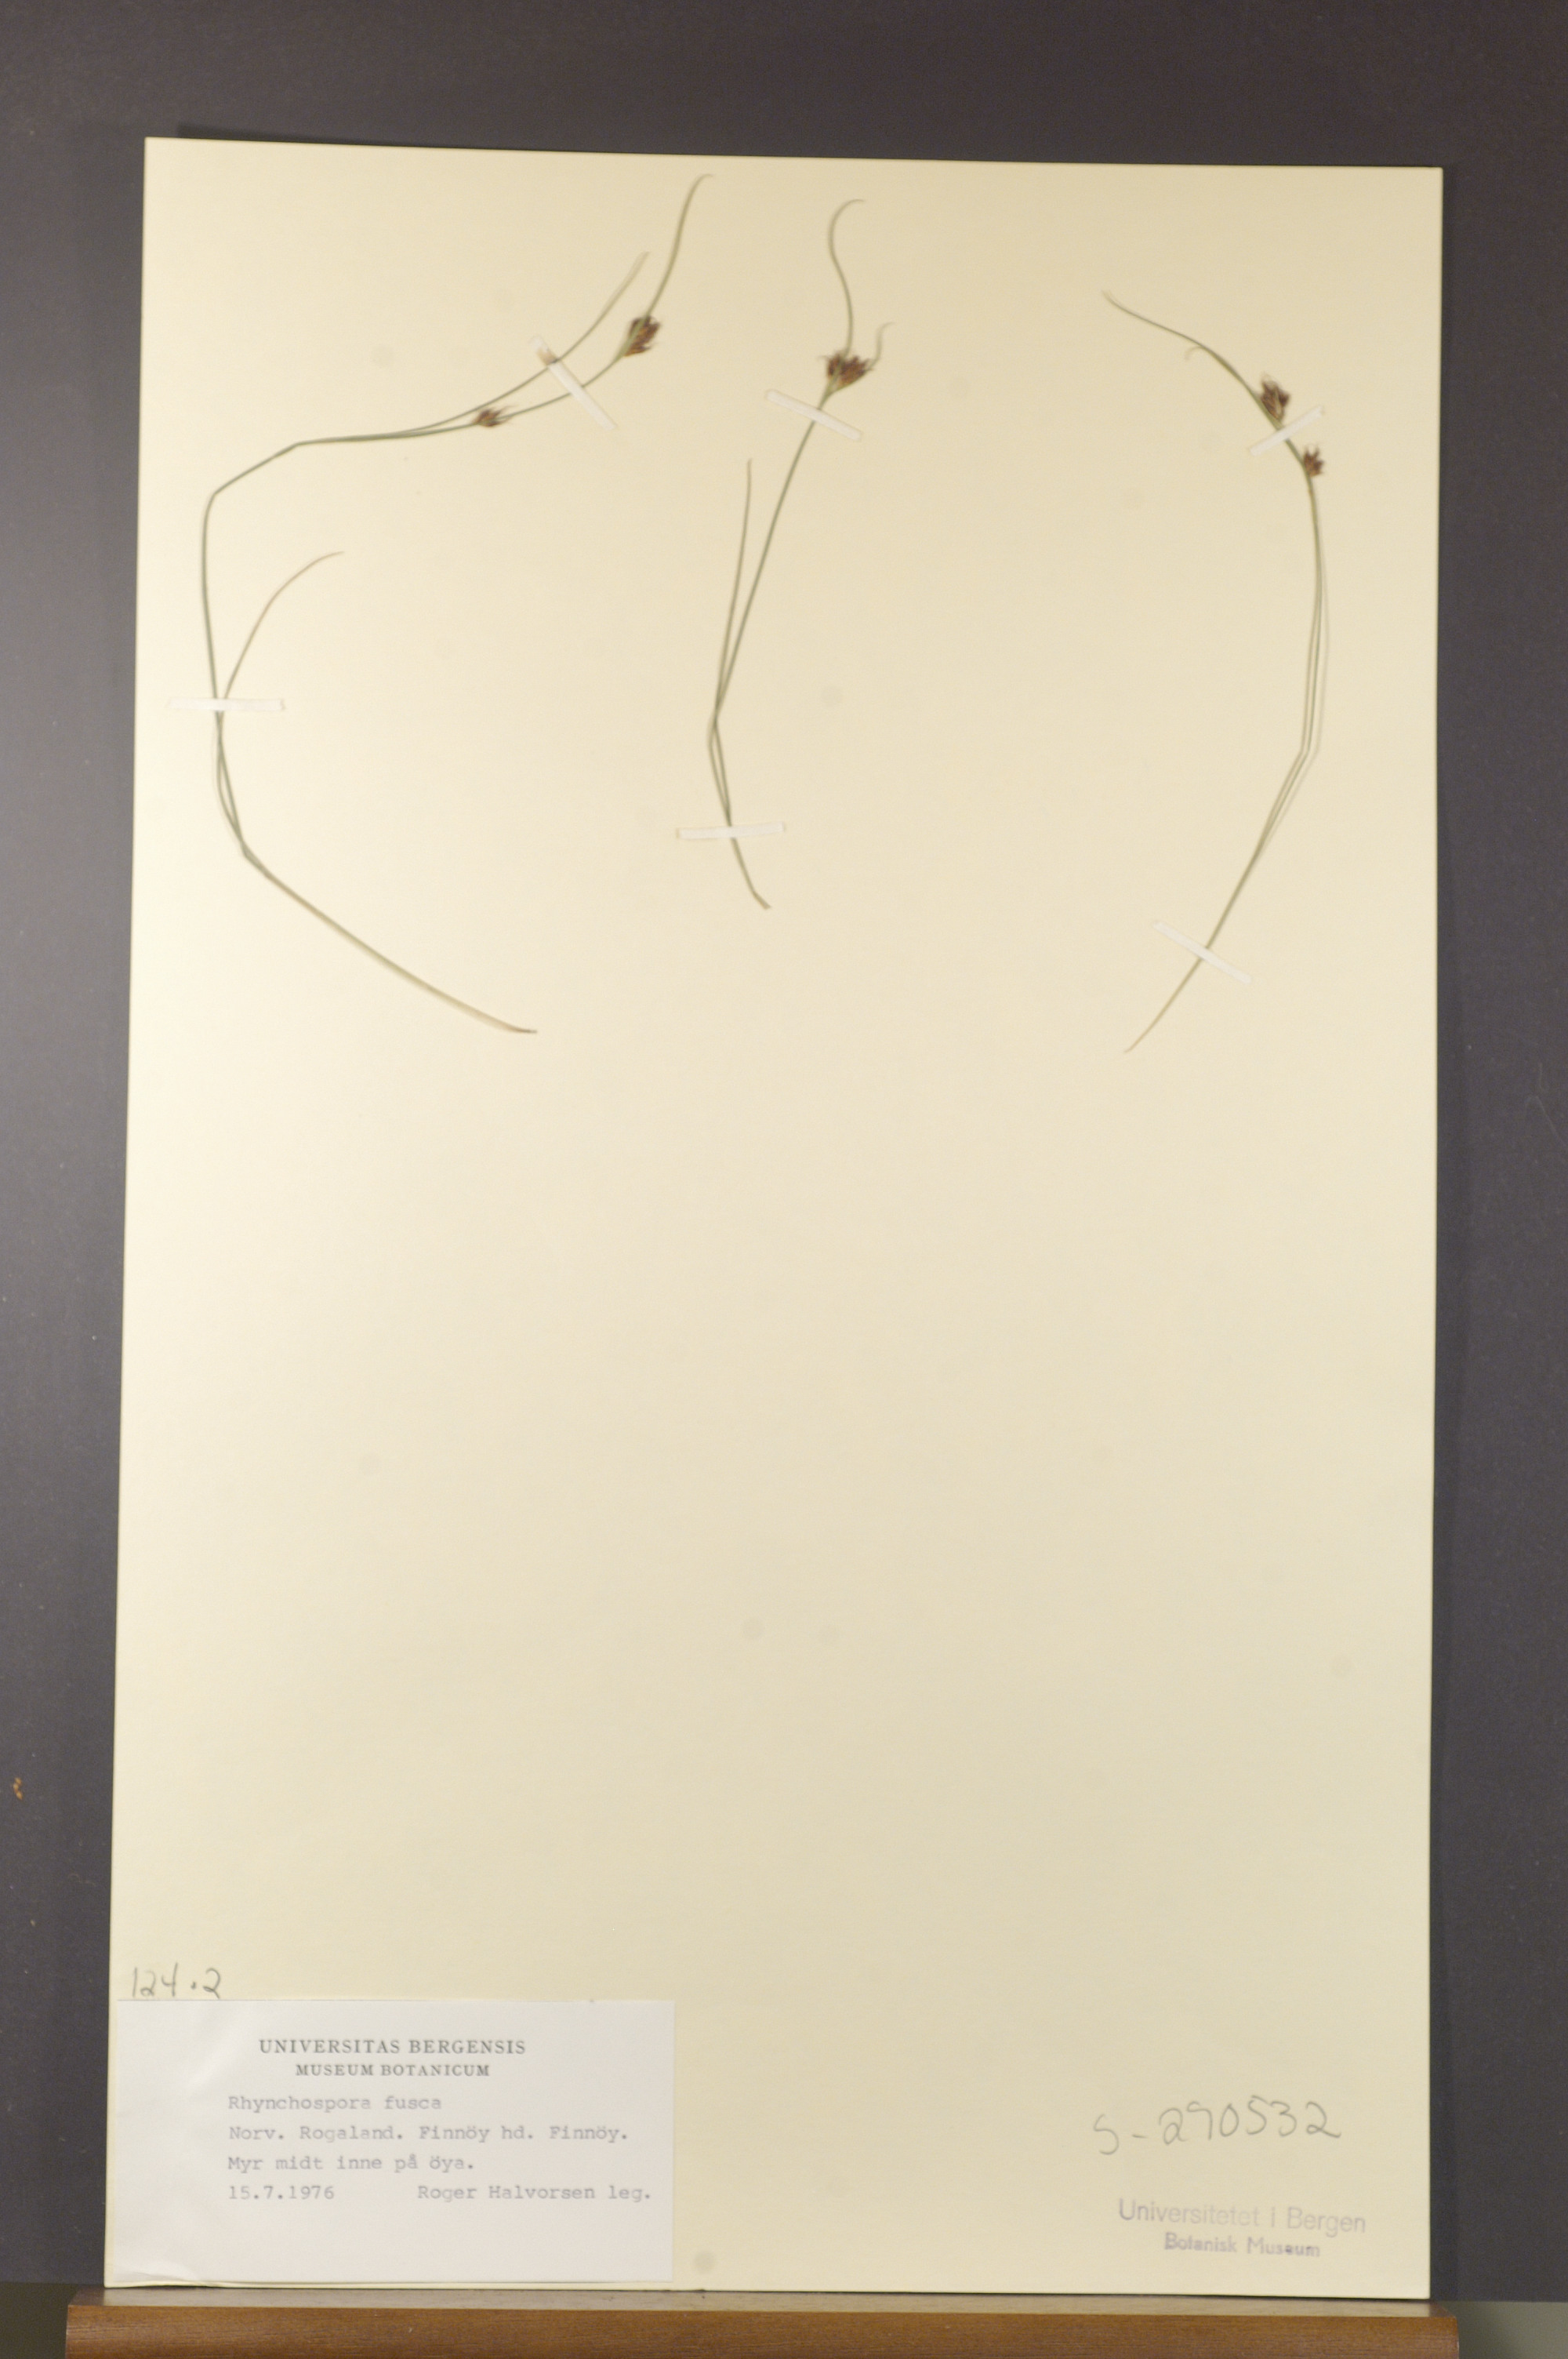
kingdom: Plantae
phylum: Tracheophyta
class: Liliopsida
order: Poales
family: Cyperaceae
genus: Rhynchospora
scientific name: Rhynchospora fusca
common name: Brown beak-sedge
